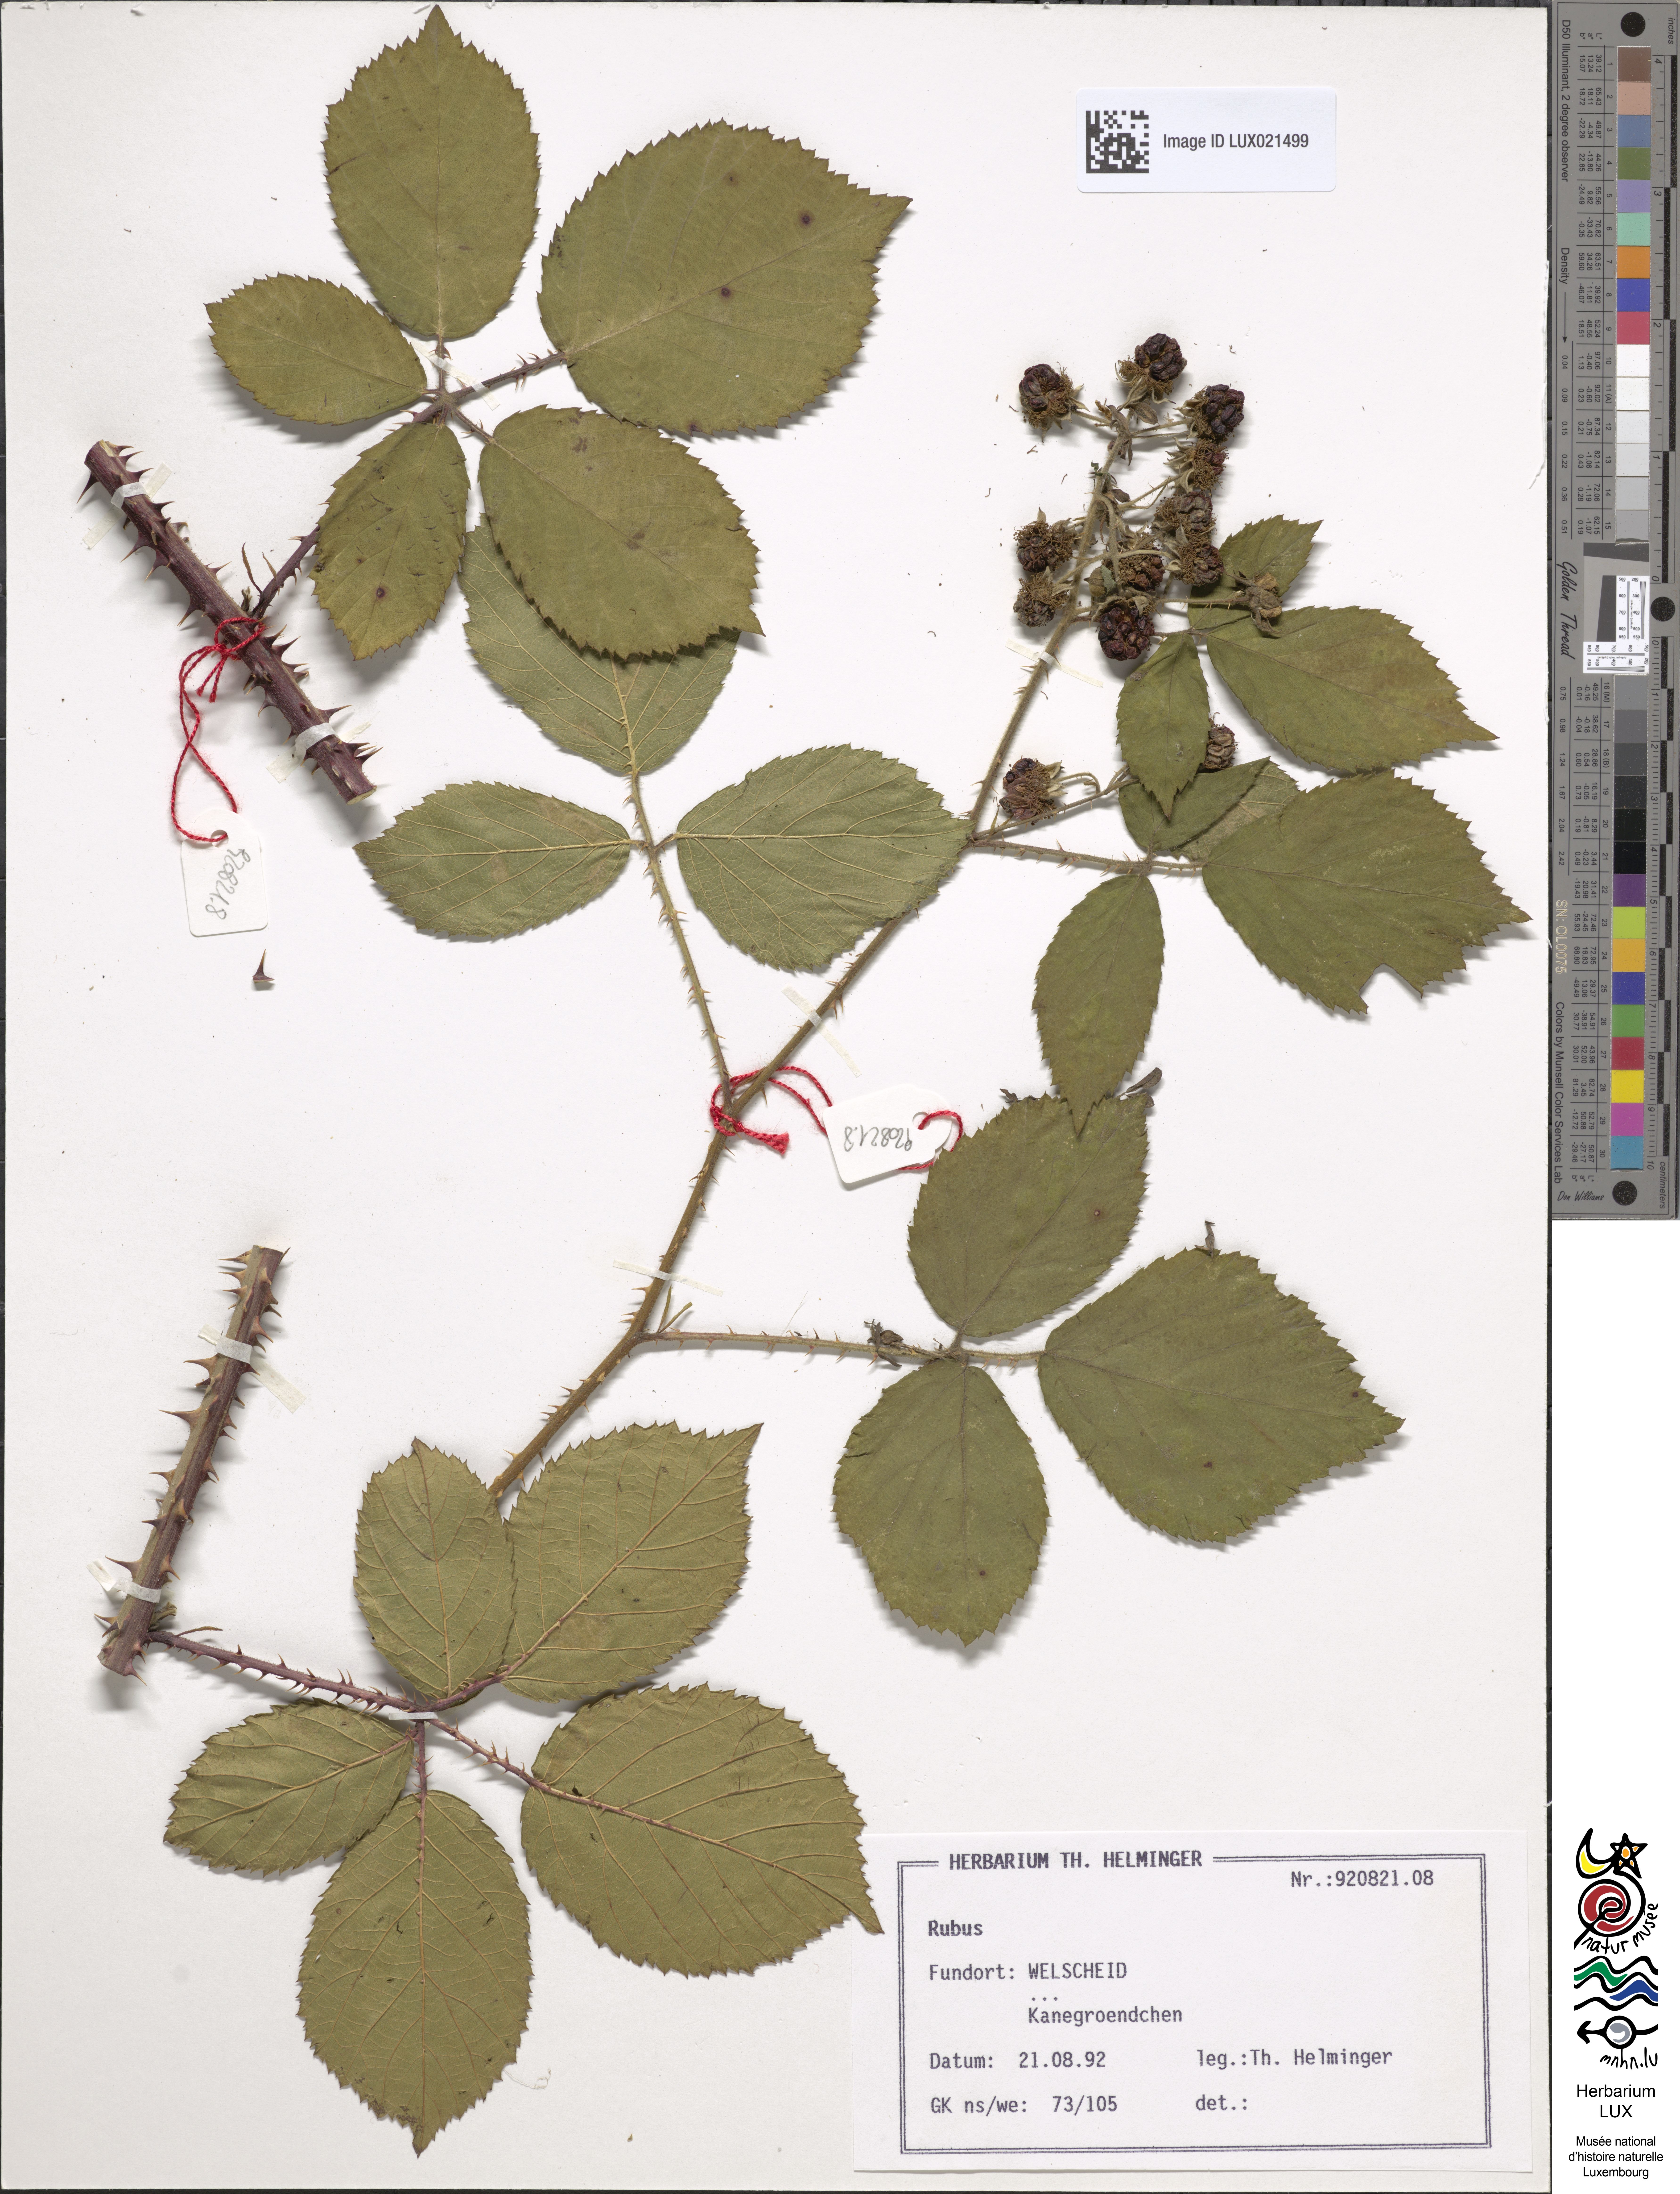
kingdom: Plantae
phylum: Tracheophyta
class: Magnoliopsida
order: Rosales
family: Rosaceae
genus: Rubus
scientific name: Rubus
